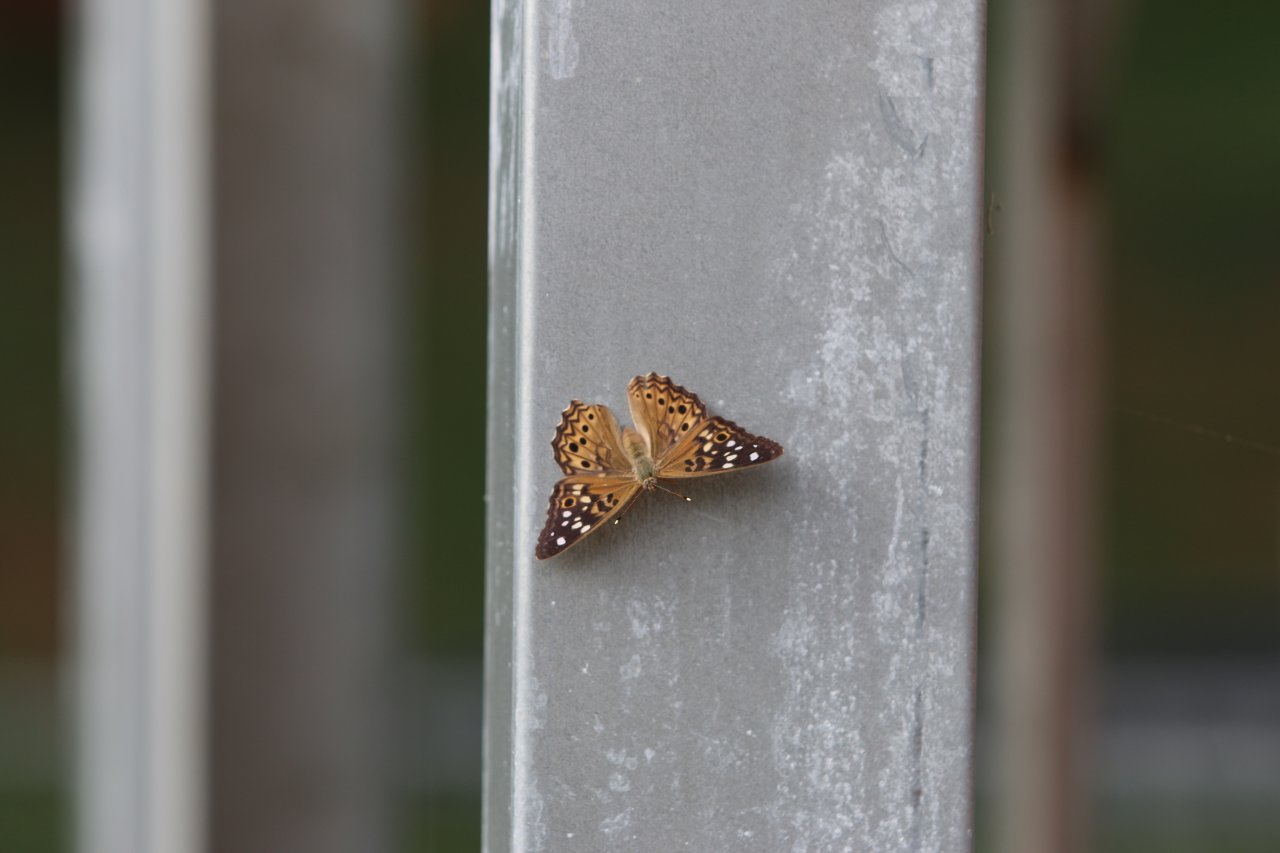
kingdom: Animalia
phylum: Arthropoda
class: Insecta
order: Lepidoptera
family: Nymphalidae
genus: Asterocampa
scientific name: Asterocampa celtis
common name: Hackberry Emperor
